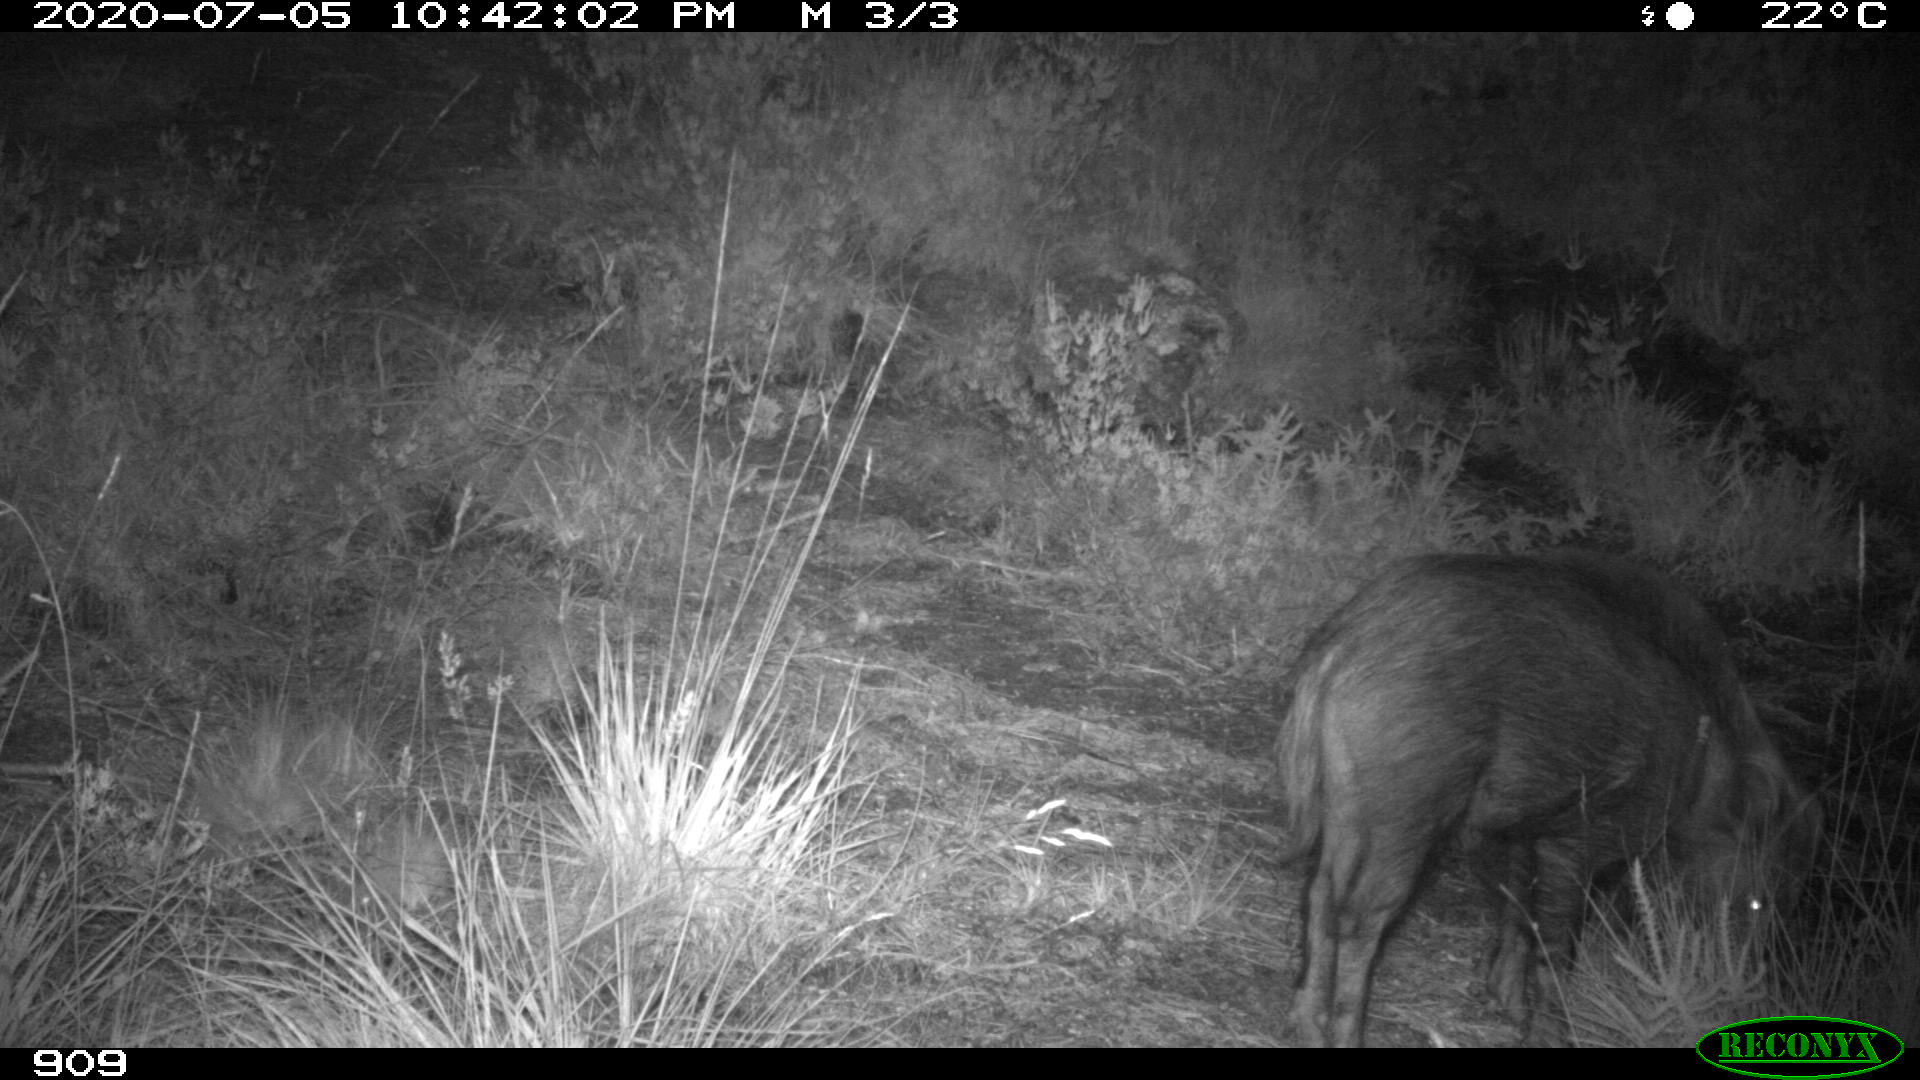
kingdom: Animalia
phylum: Chordata
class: Mammalia
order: Artiodactyla
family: Suidae
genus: Sus
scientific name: Sus scrofa
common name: Wild boar
